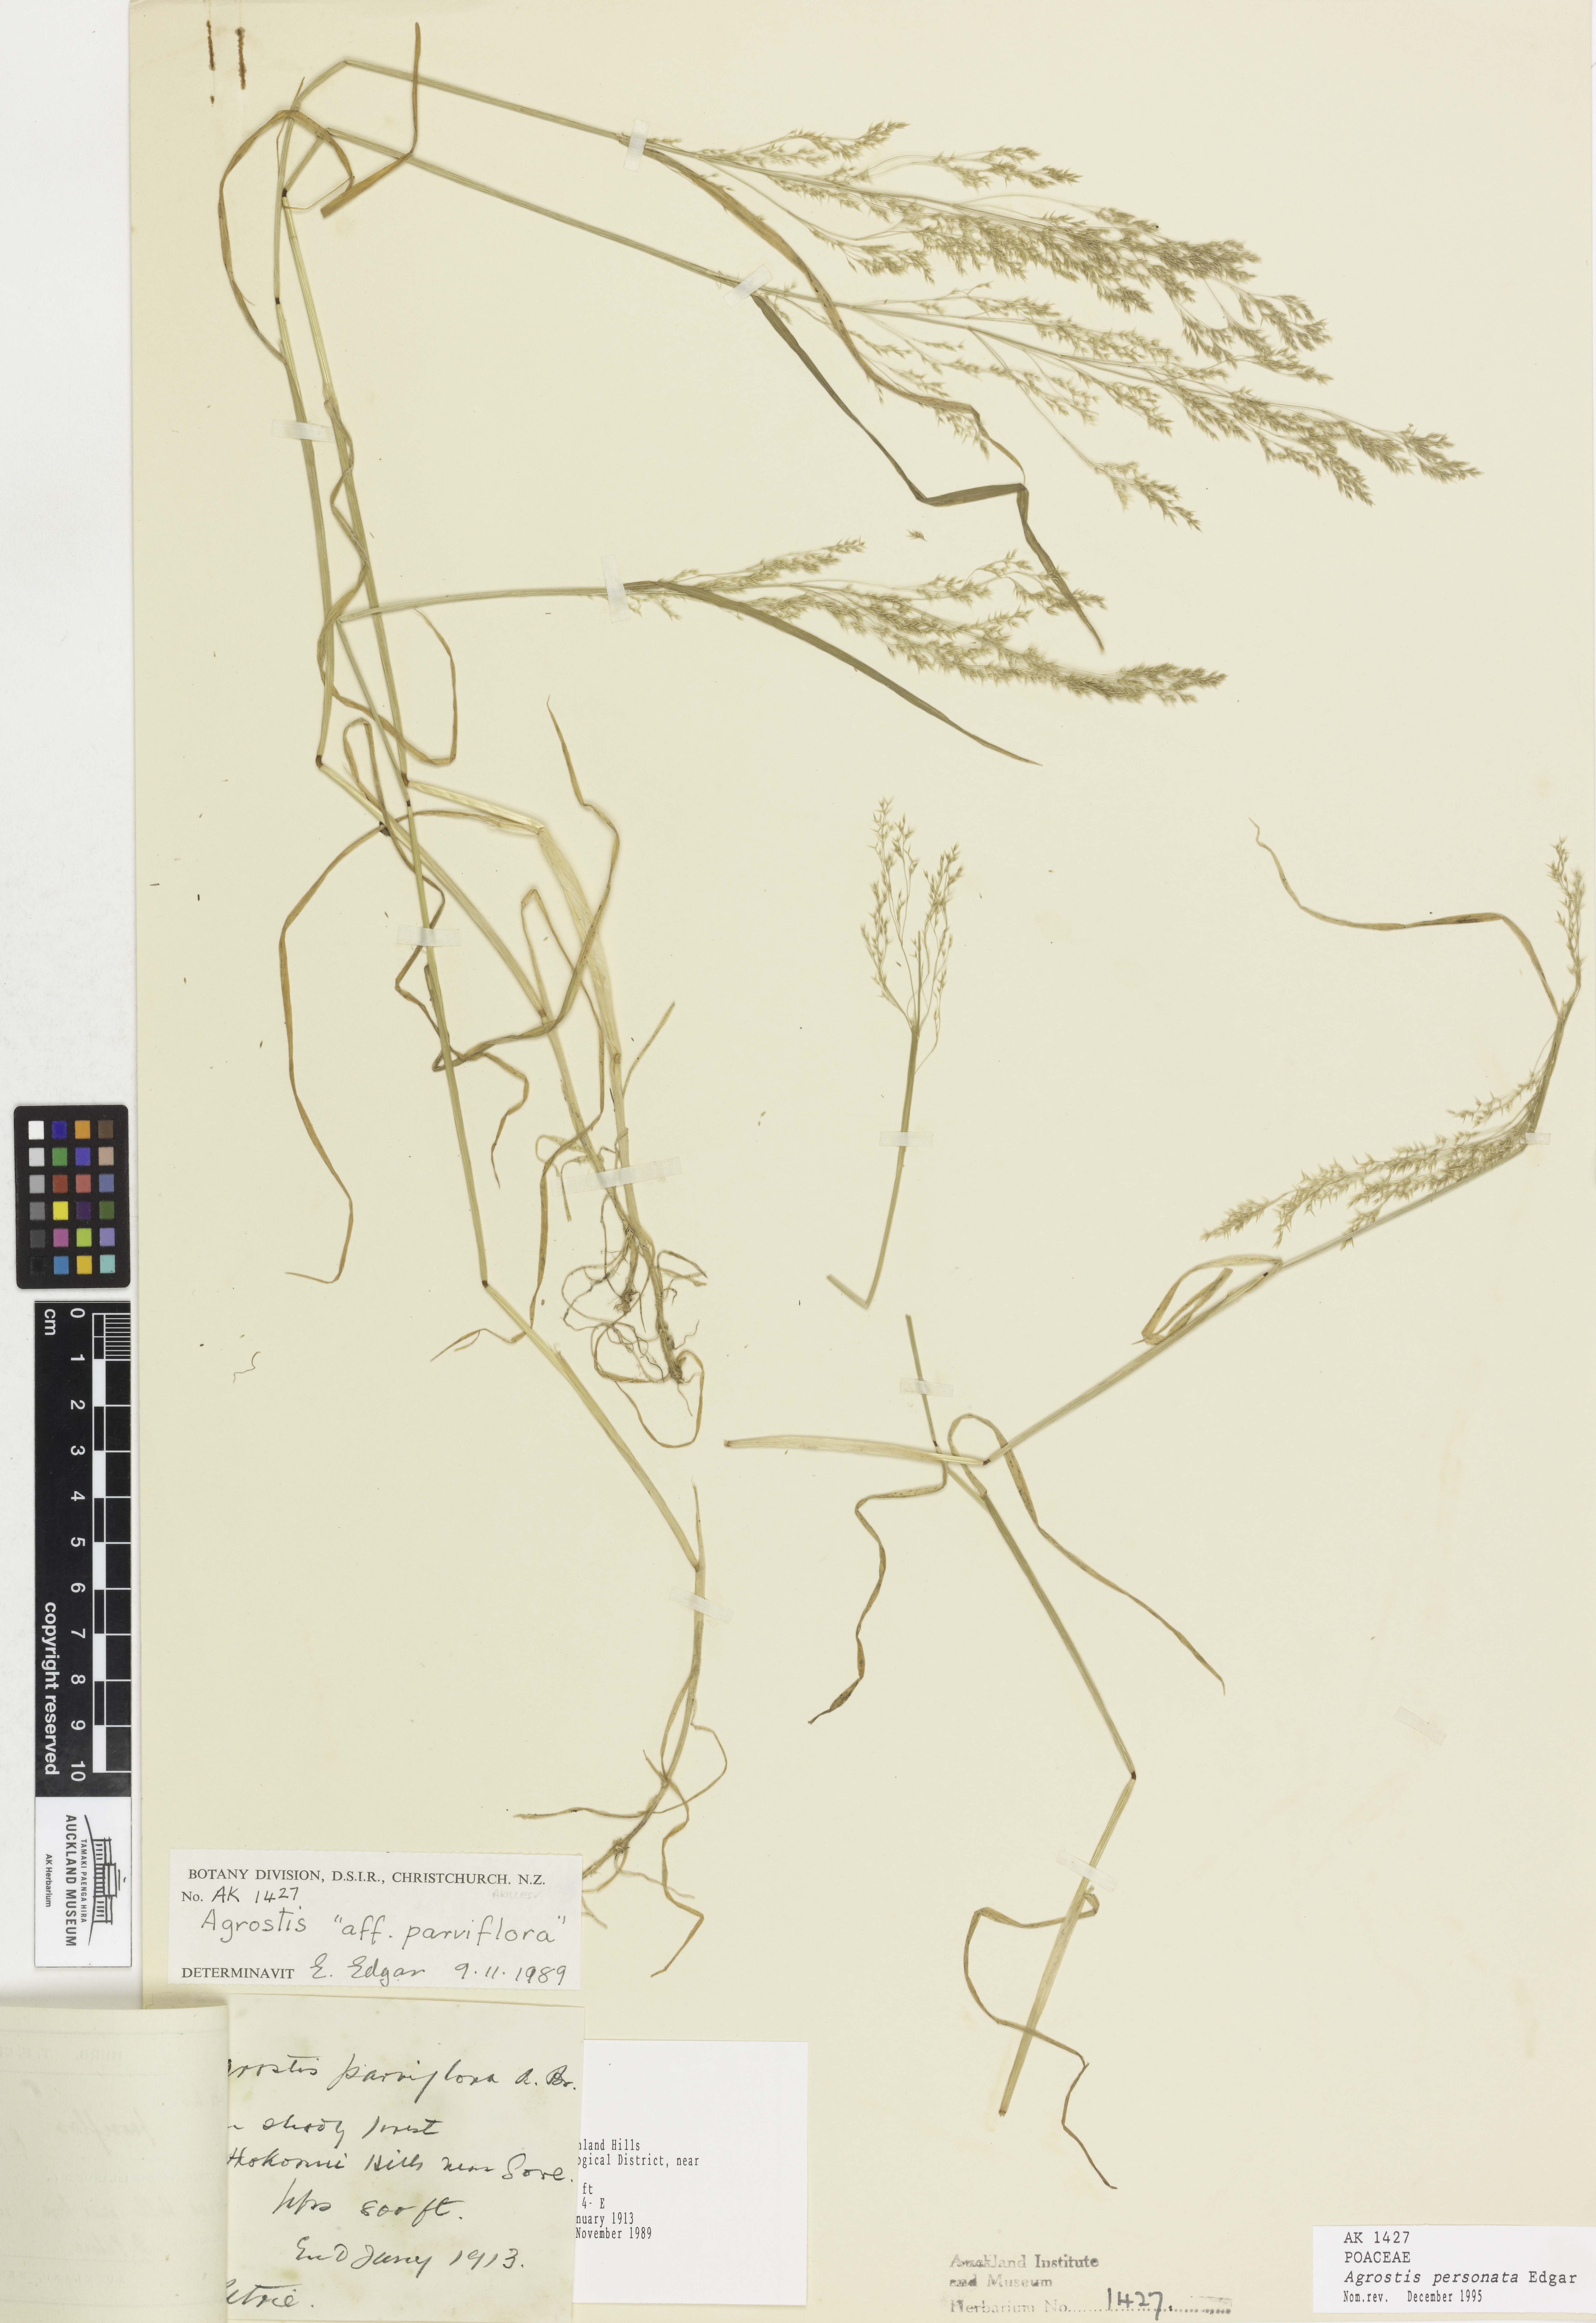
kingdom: Plantae
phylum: Tracheophyta
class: Liliopsida
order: Poales
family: Poaceae
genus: Agrostis
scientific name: Agrostis personata
